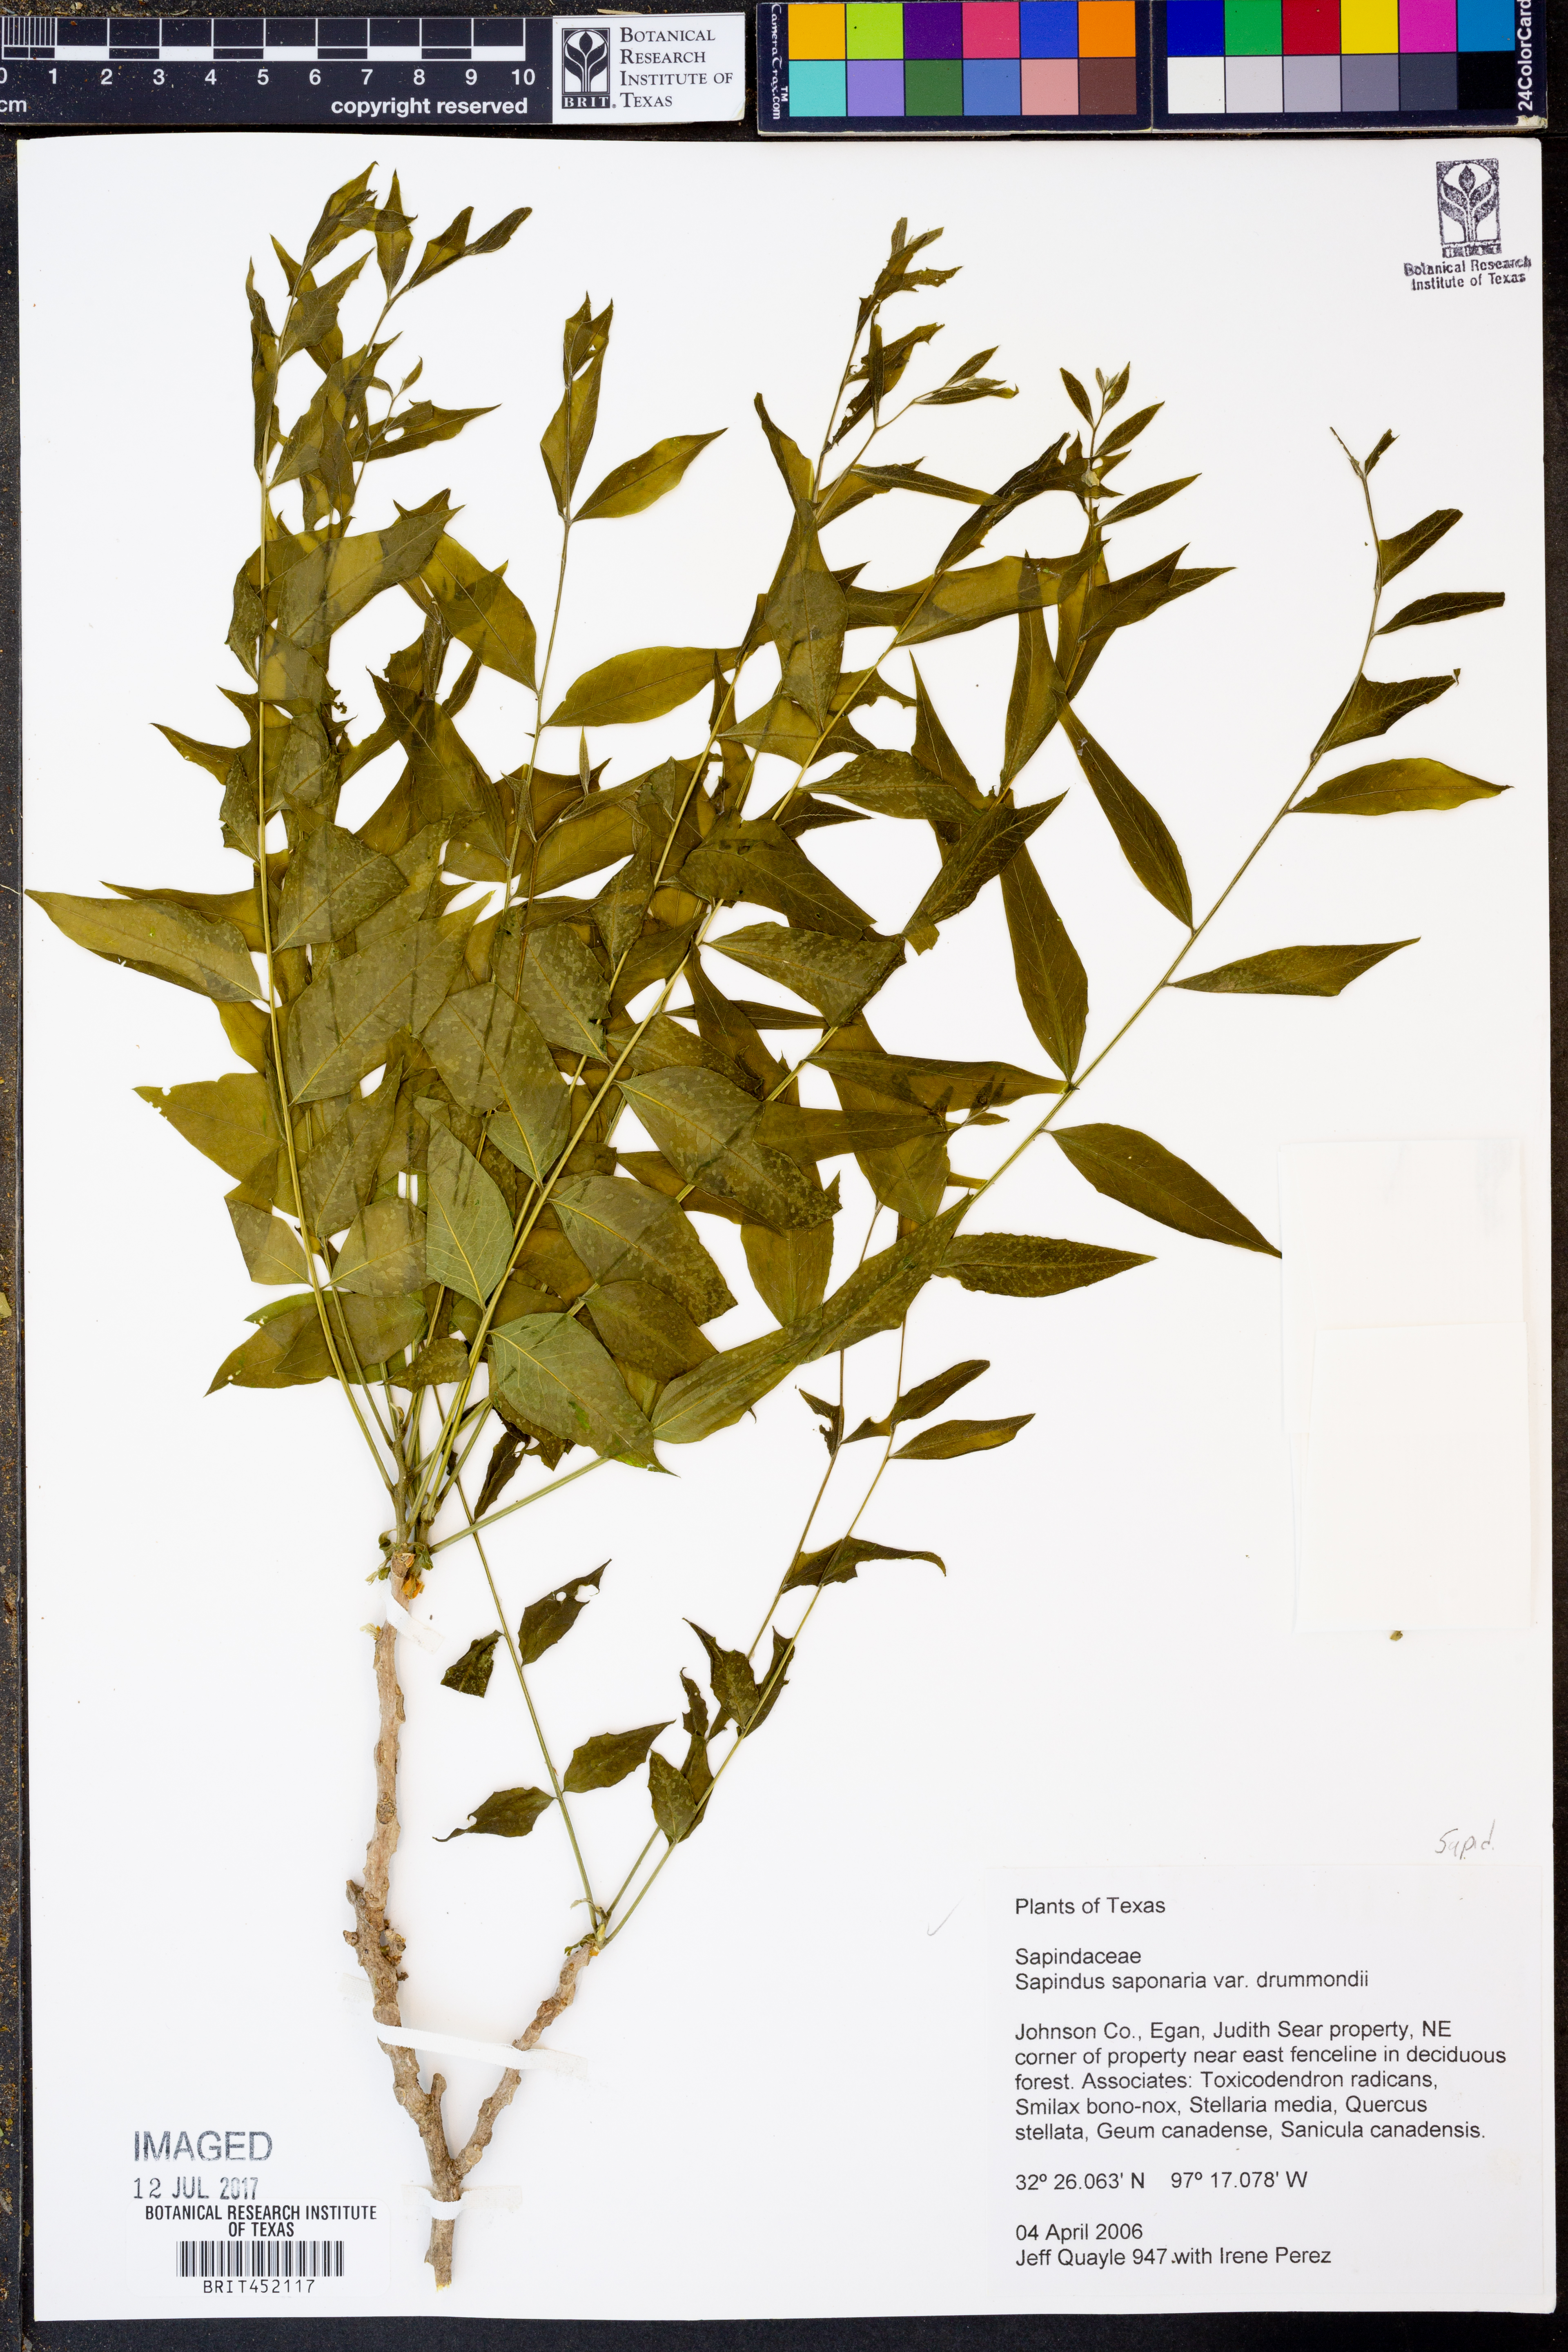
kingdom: Plantae
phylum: Tracheophyta
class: Magnoliopsida
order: Sapindales
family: Sapindaceae
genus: Sapindus
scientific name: Sapindus drummondii
